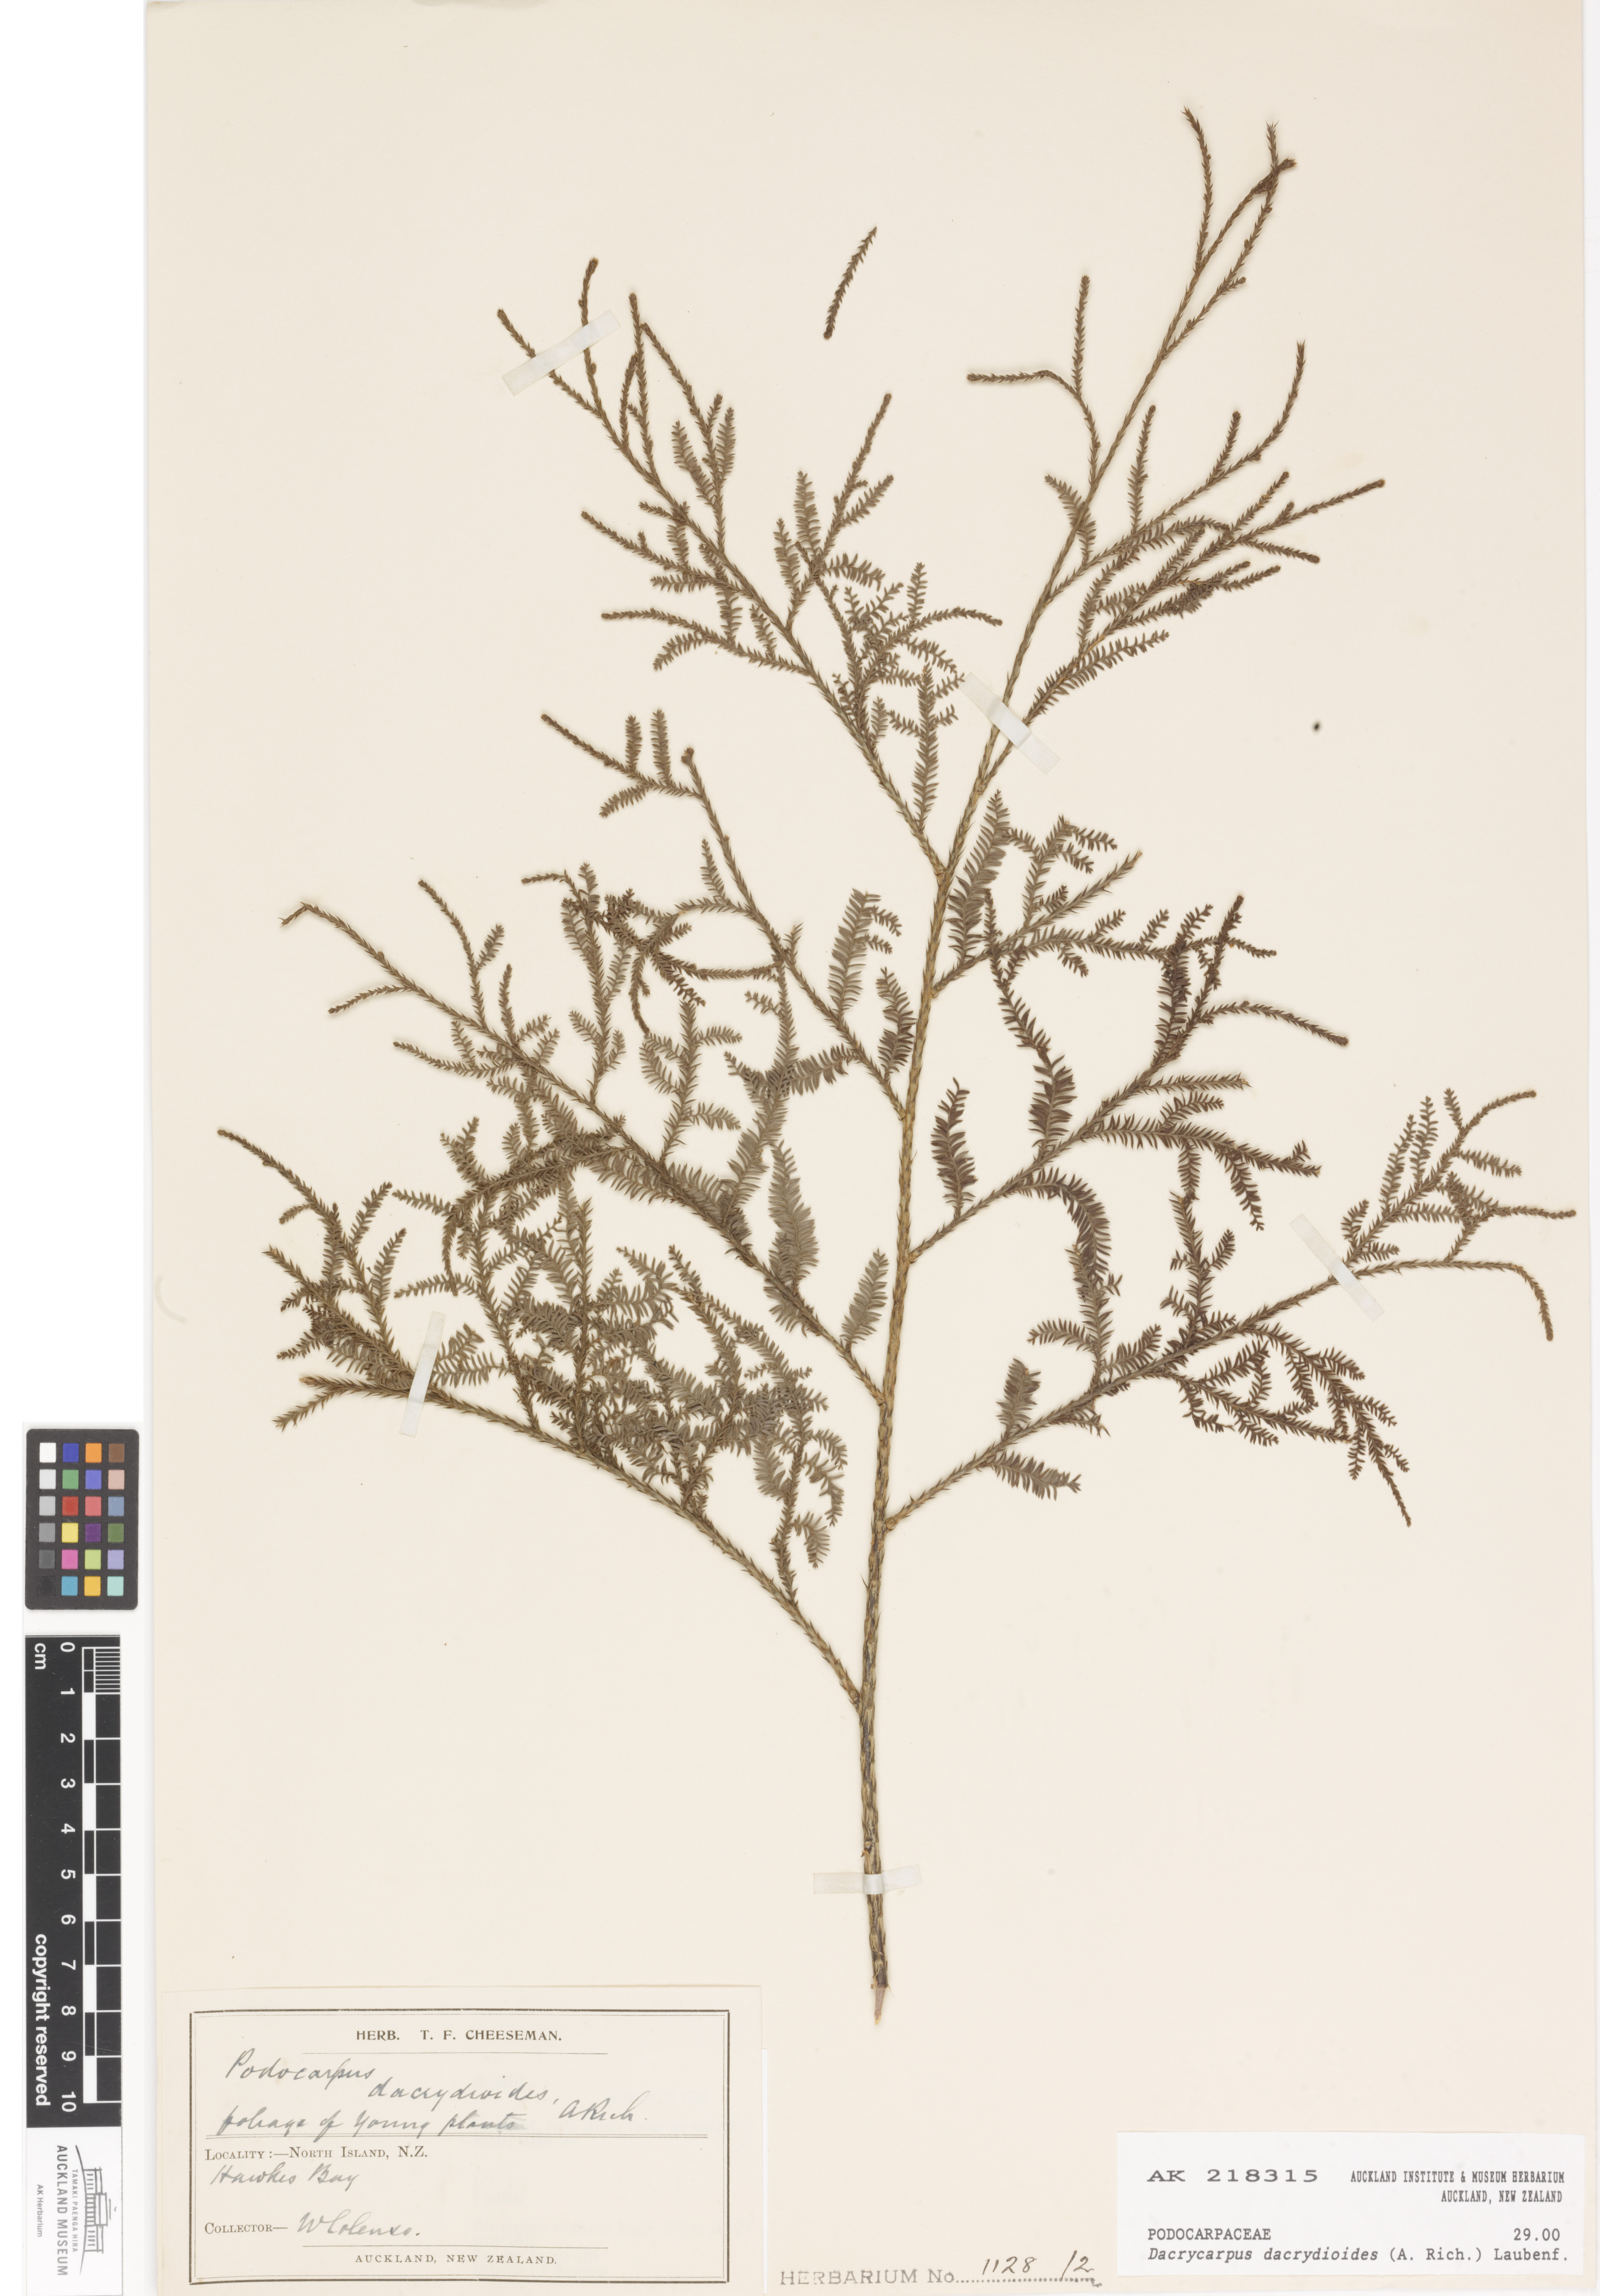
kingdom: Plantae
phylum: Tracheophyta
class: Pinopsida
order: Pinales
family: Podocarpaceae
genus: Dacrycarpus
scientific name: Dacrycarpus dacrydioides
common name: White pine
